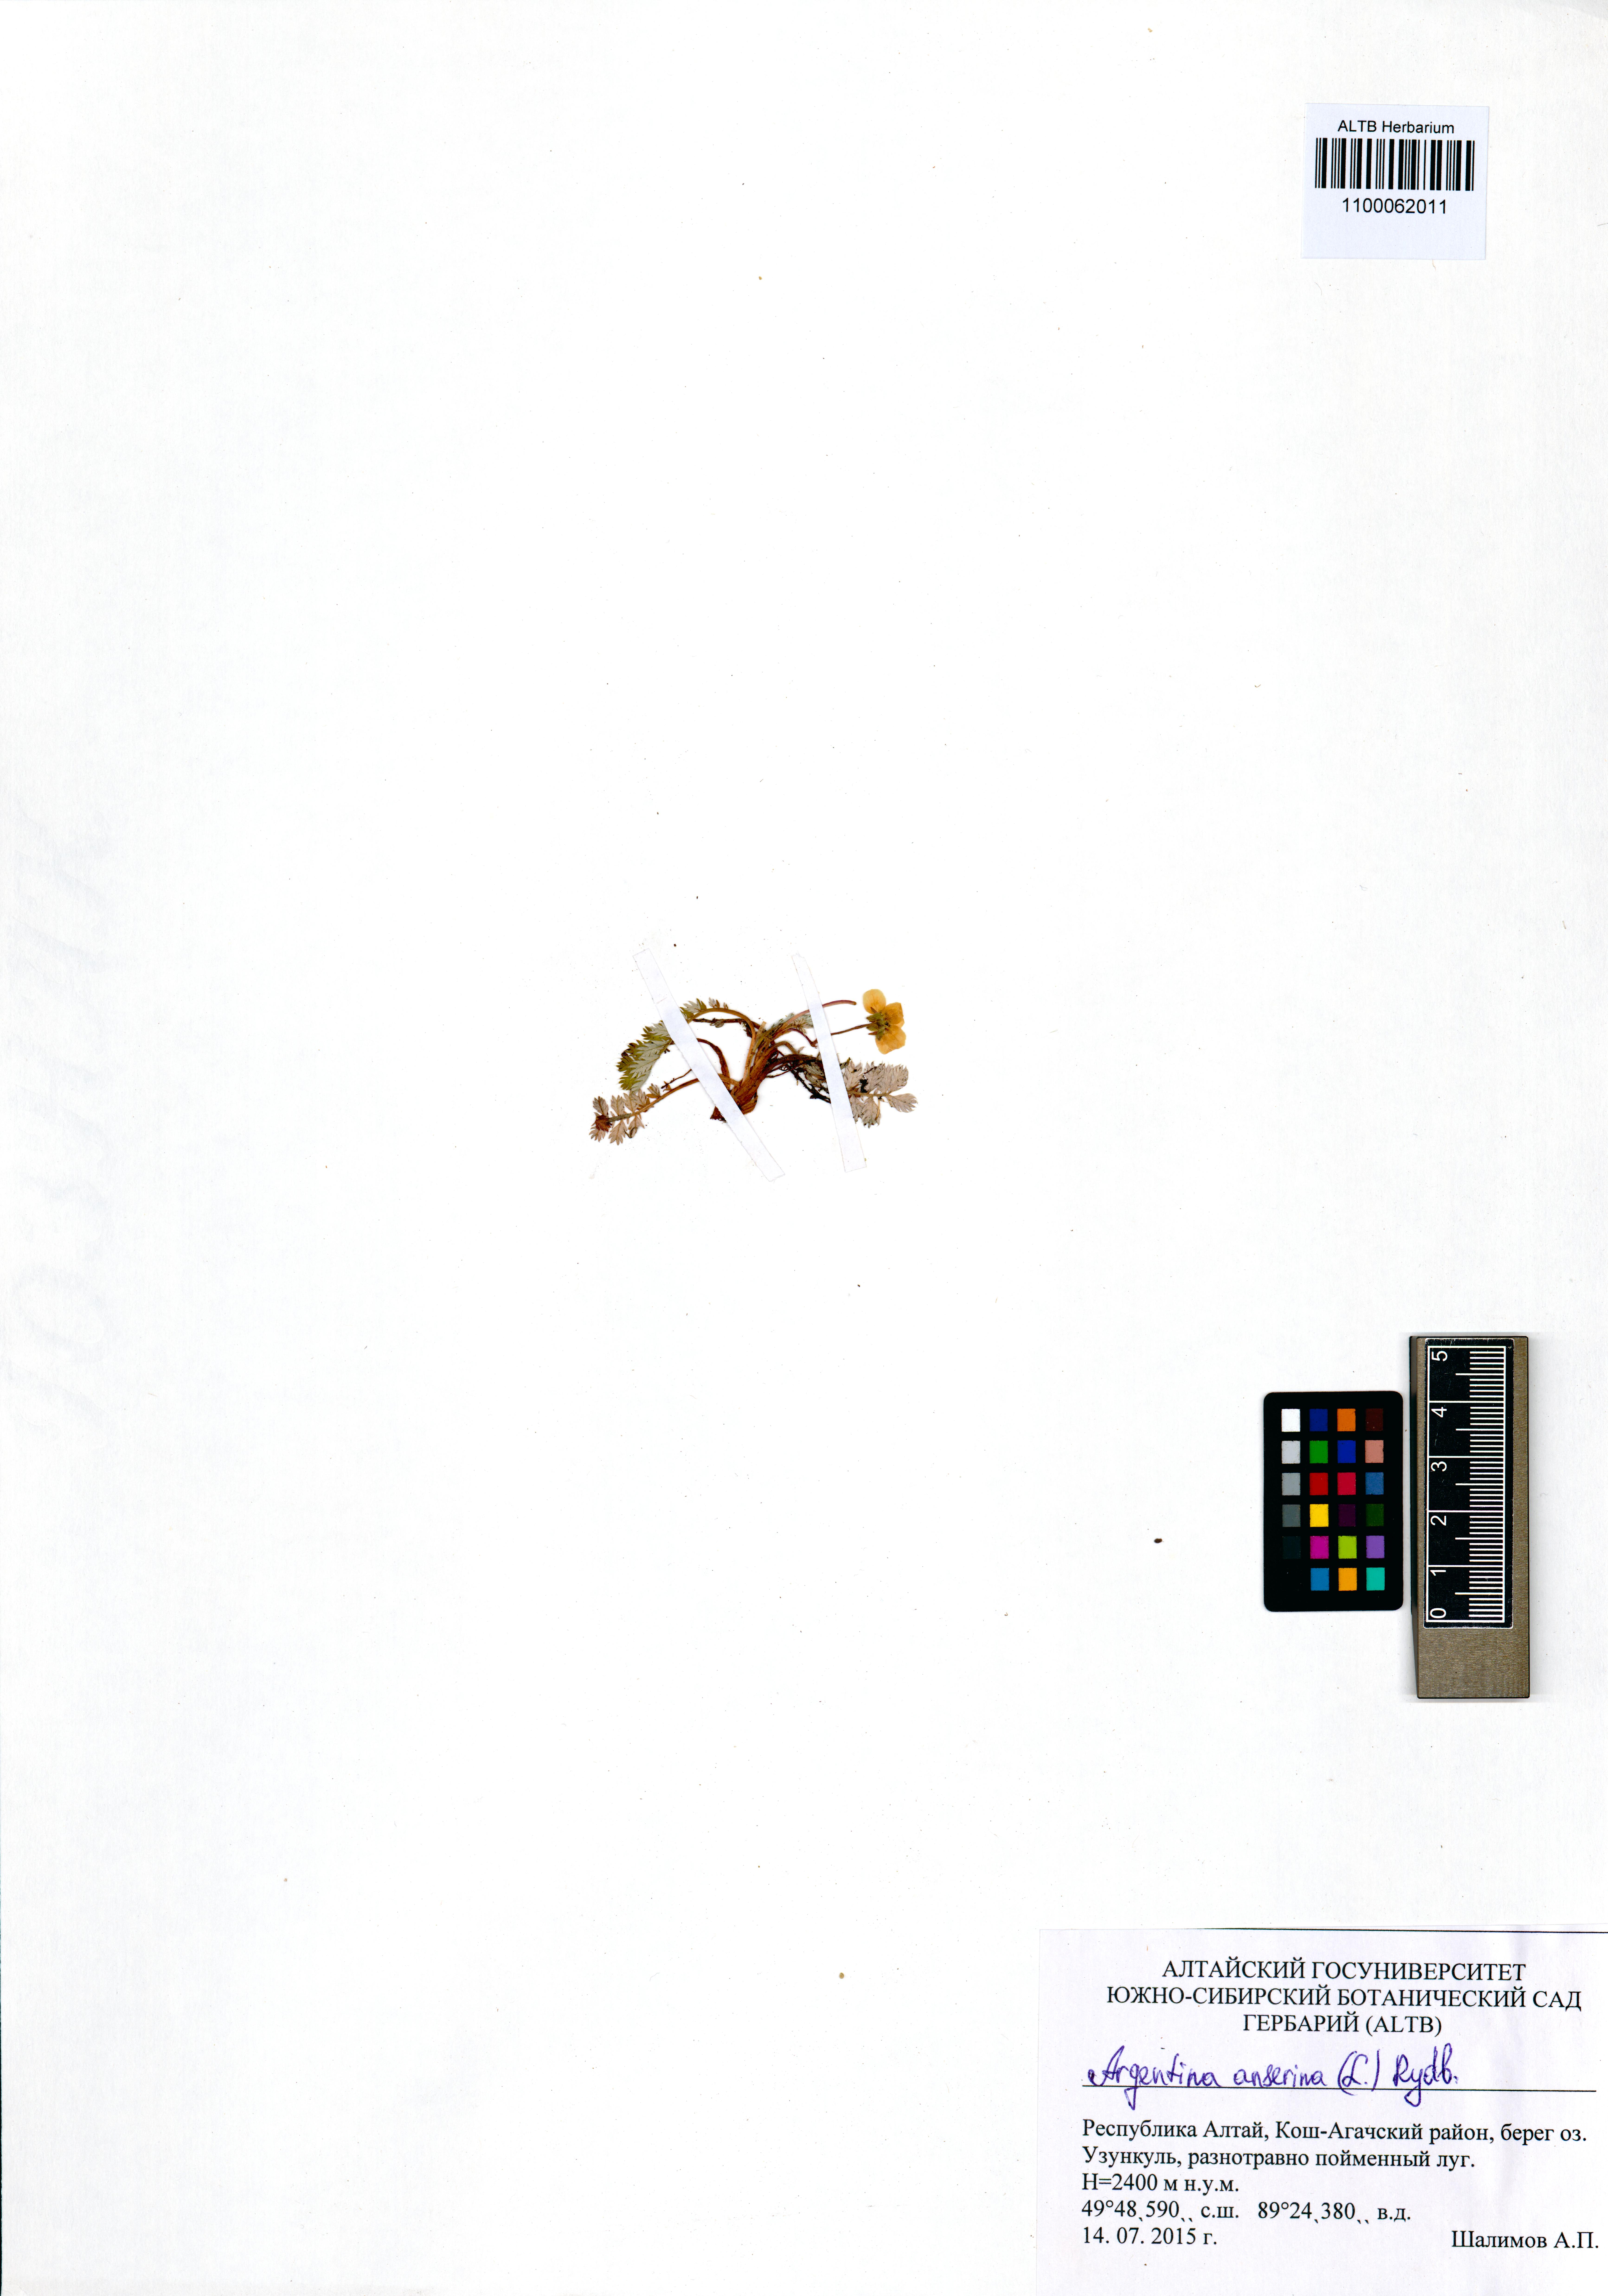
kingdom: Plantae
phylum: Tracheophyta
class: Magnoliopsida
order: Rosales
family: Rosaceae
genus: Argentina
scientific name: Argentina anserina
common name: Common silverweed
